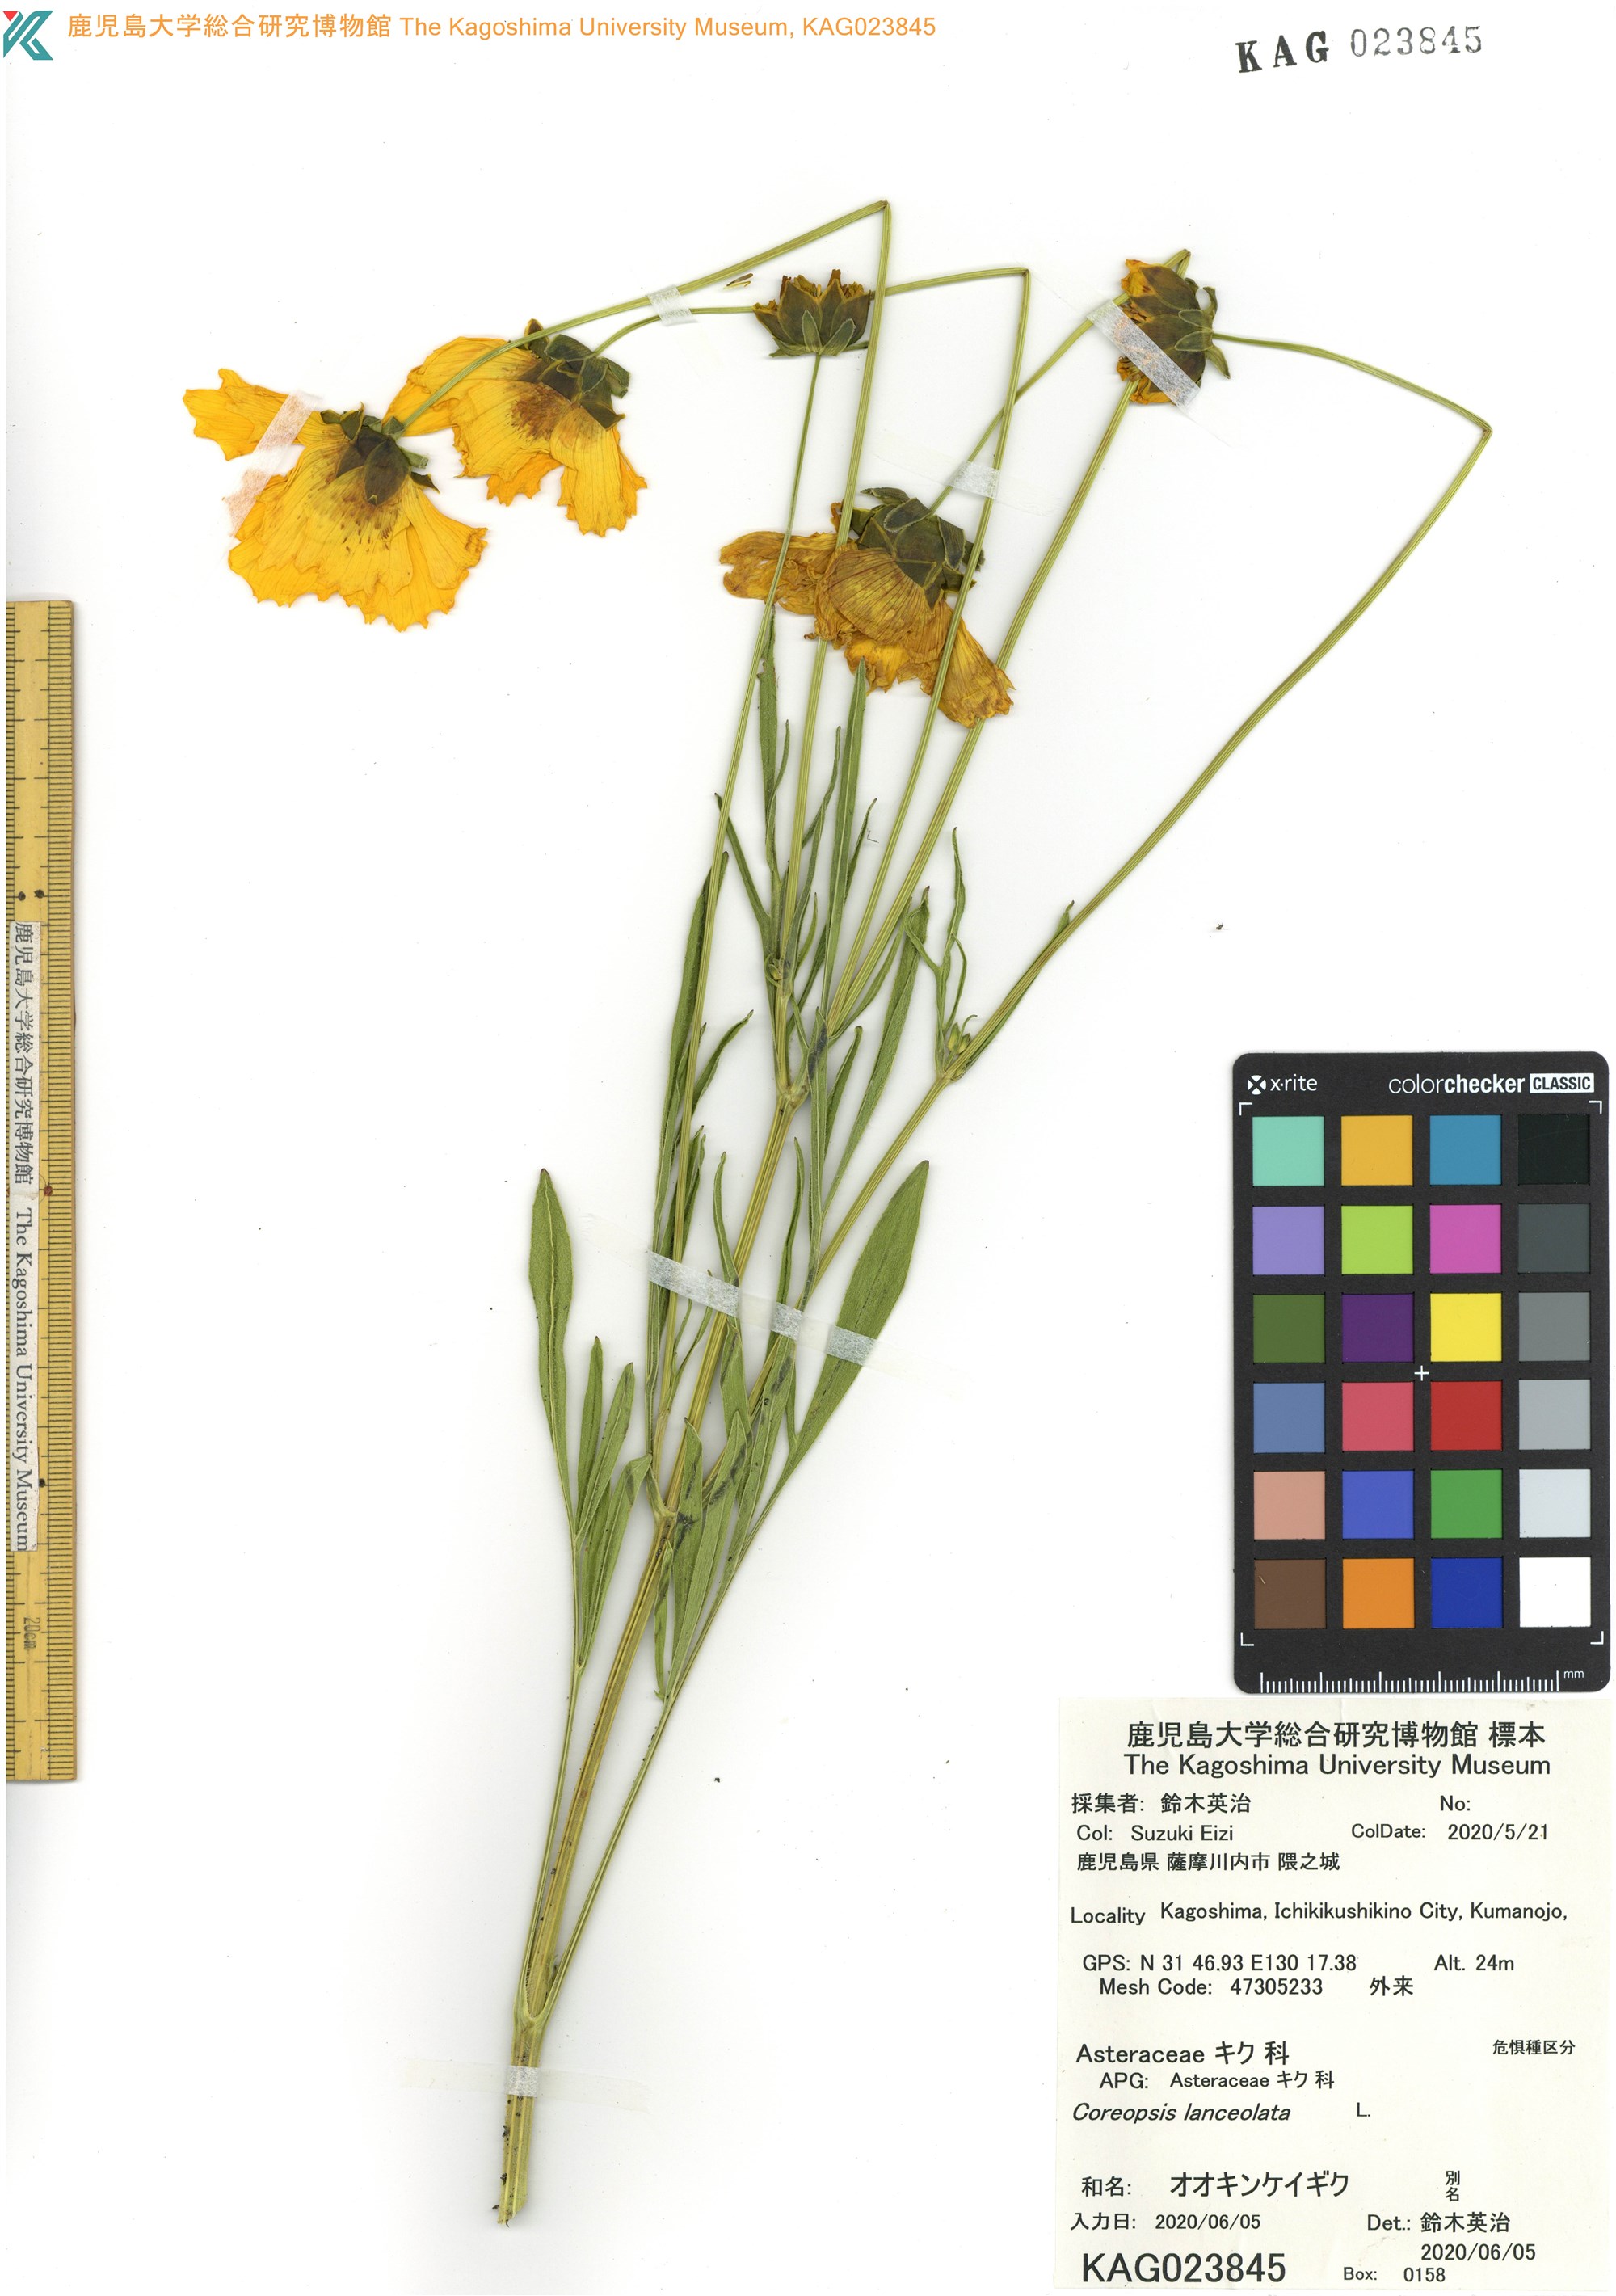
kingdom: Plantae
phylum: Tracheophyta
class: Magnoliopsida
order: Asterales
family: Asteraceae
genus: Coreopsis
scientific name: Coreopsis lanceolata
